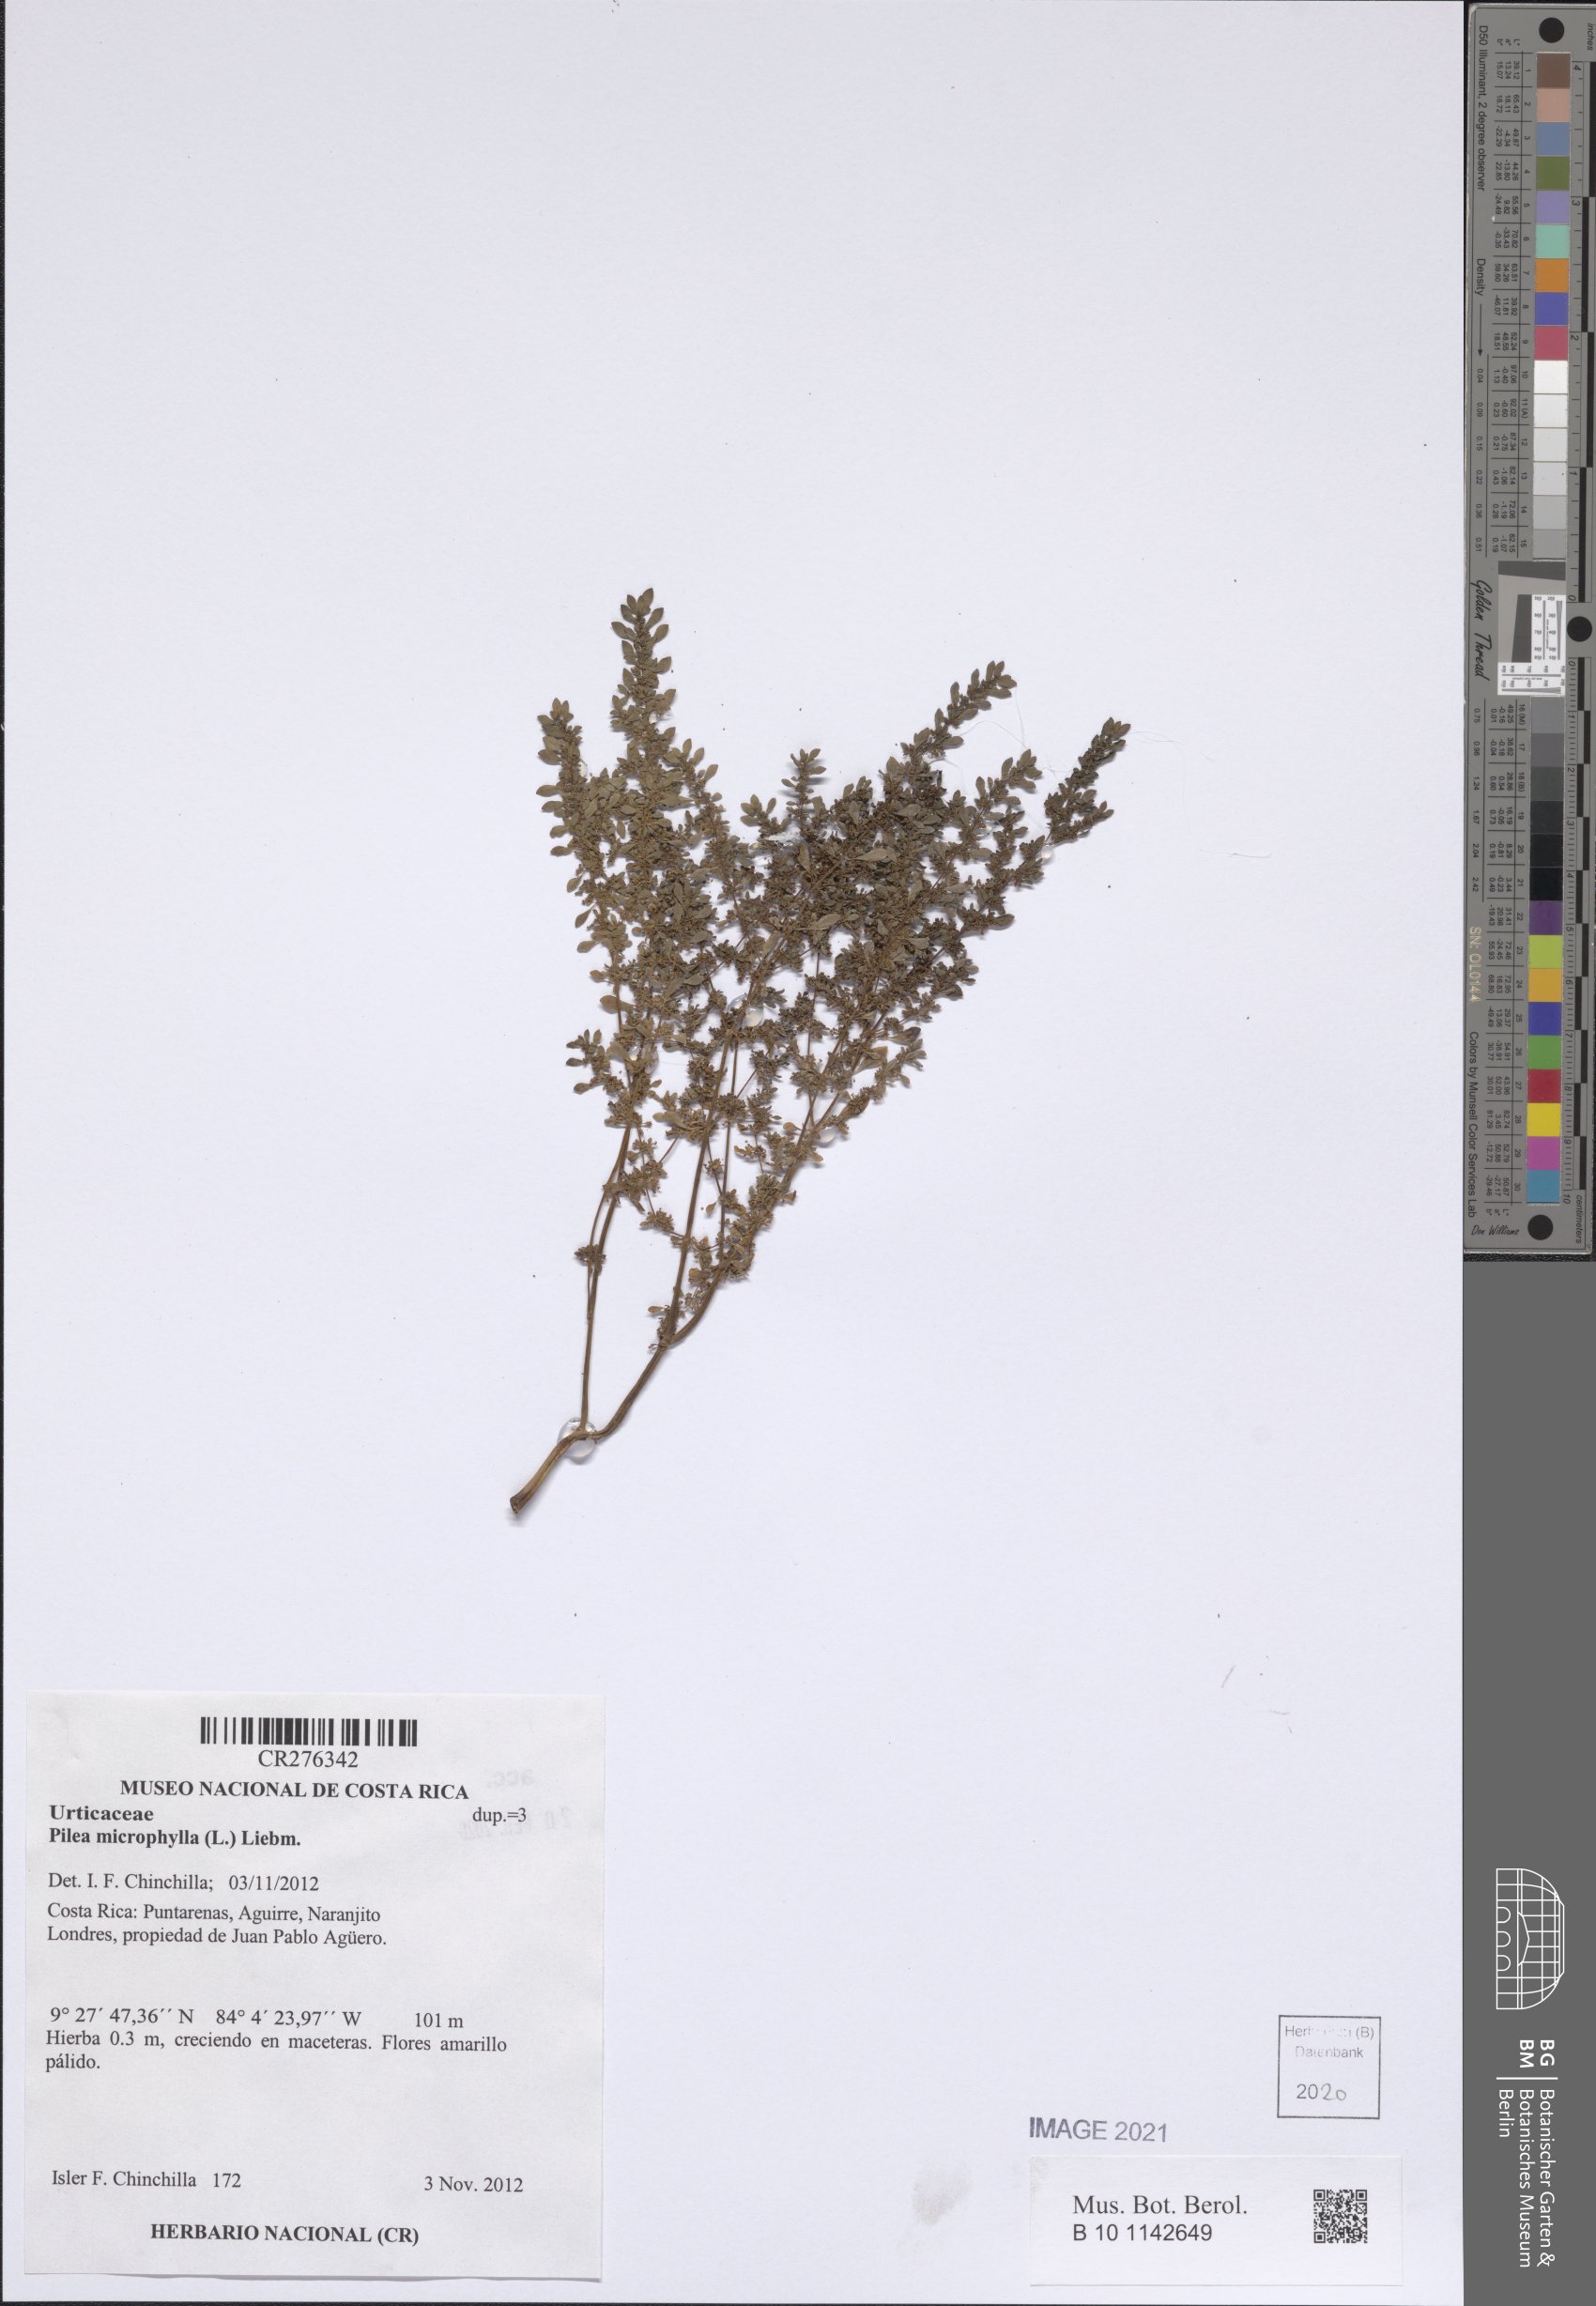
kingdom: Plantae
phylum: Tracheophyta
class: Magnoliopsida
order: Rosales
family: Urticaceae
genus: Pilea
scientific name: Pilea microphylla
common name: Artillery-plant
